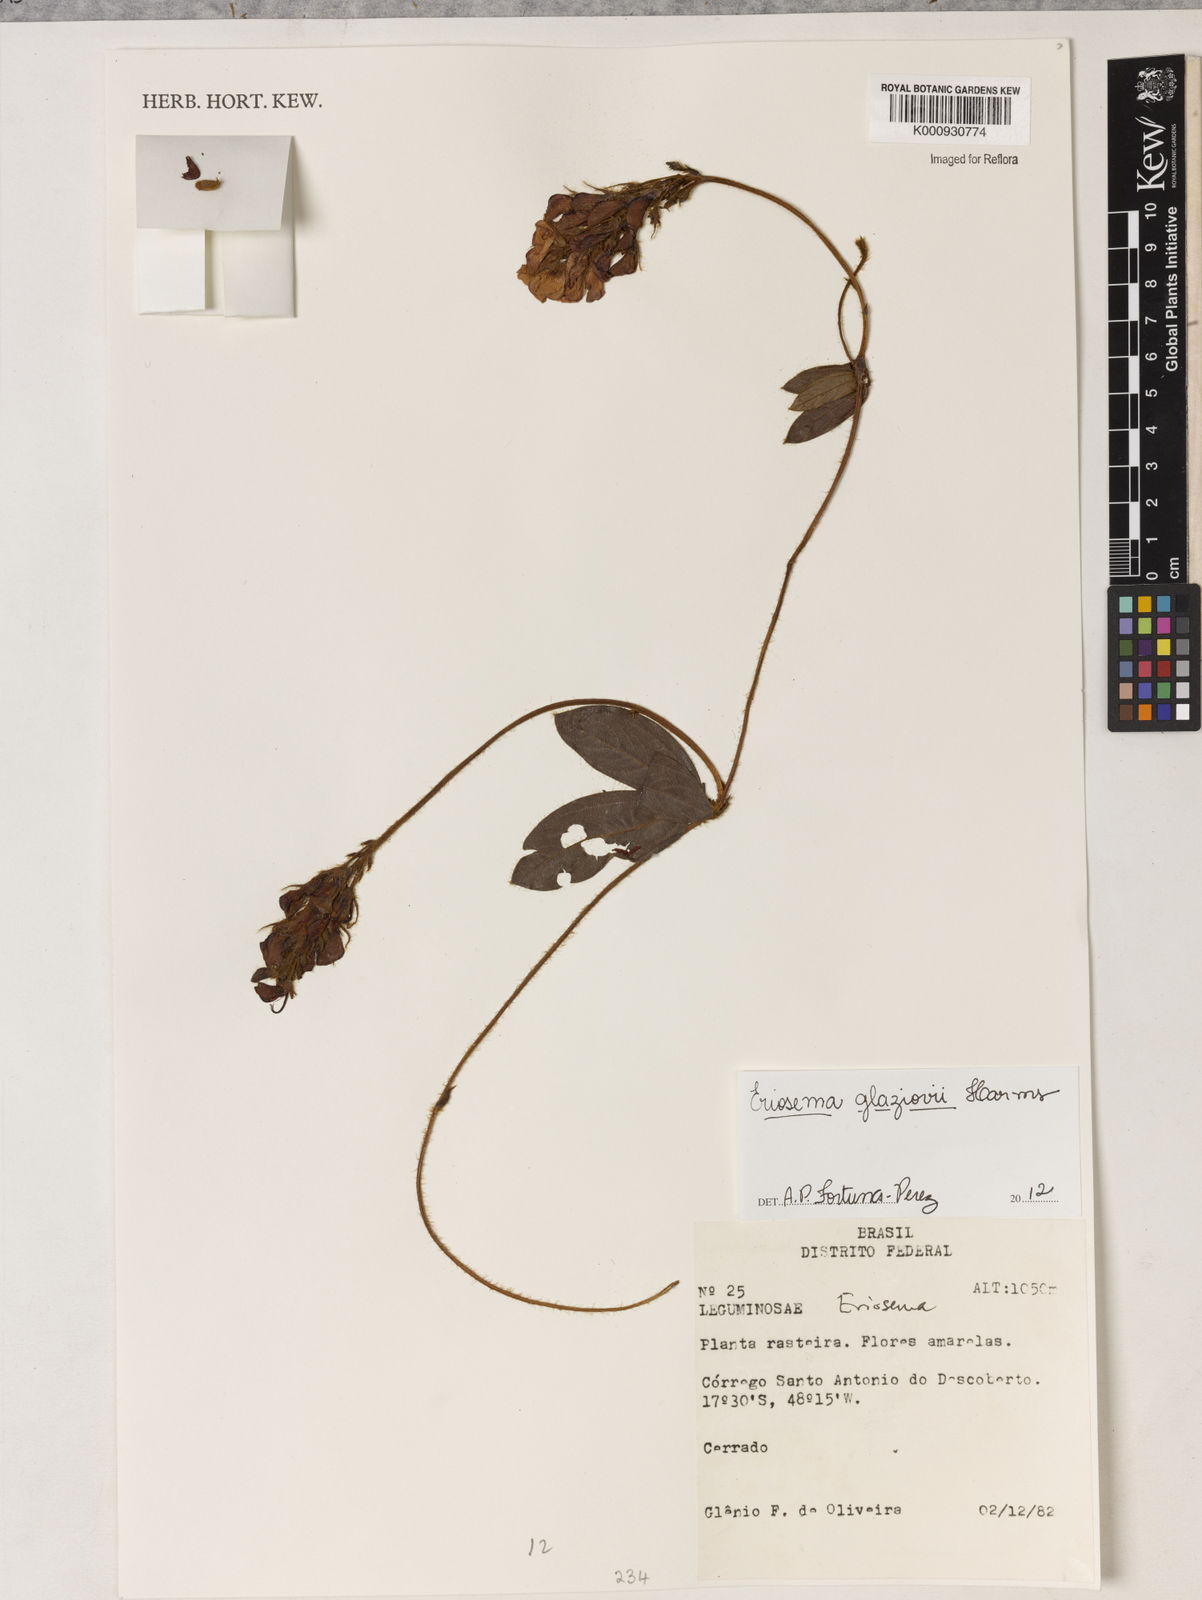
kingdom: Plantae
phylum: Tracheophyta
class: Magnoliopsida
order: Fabales
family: Fabaceae
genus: Eriosema
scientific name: Eriosema glaziovii
